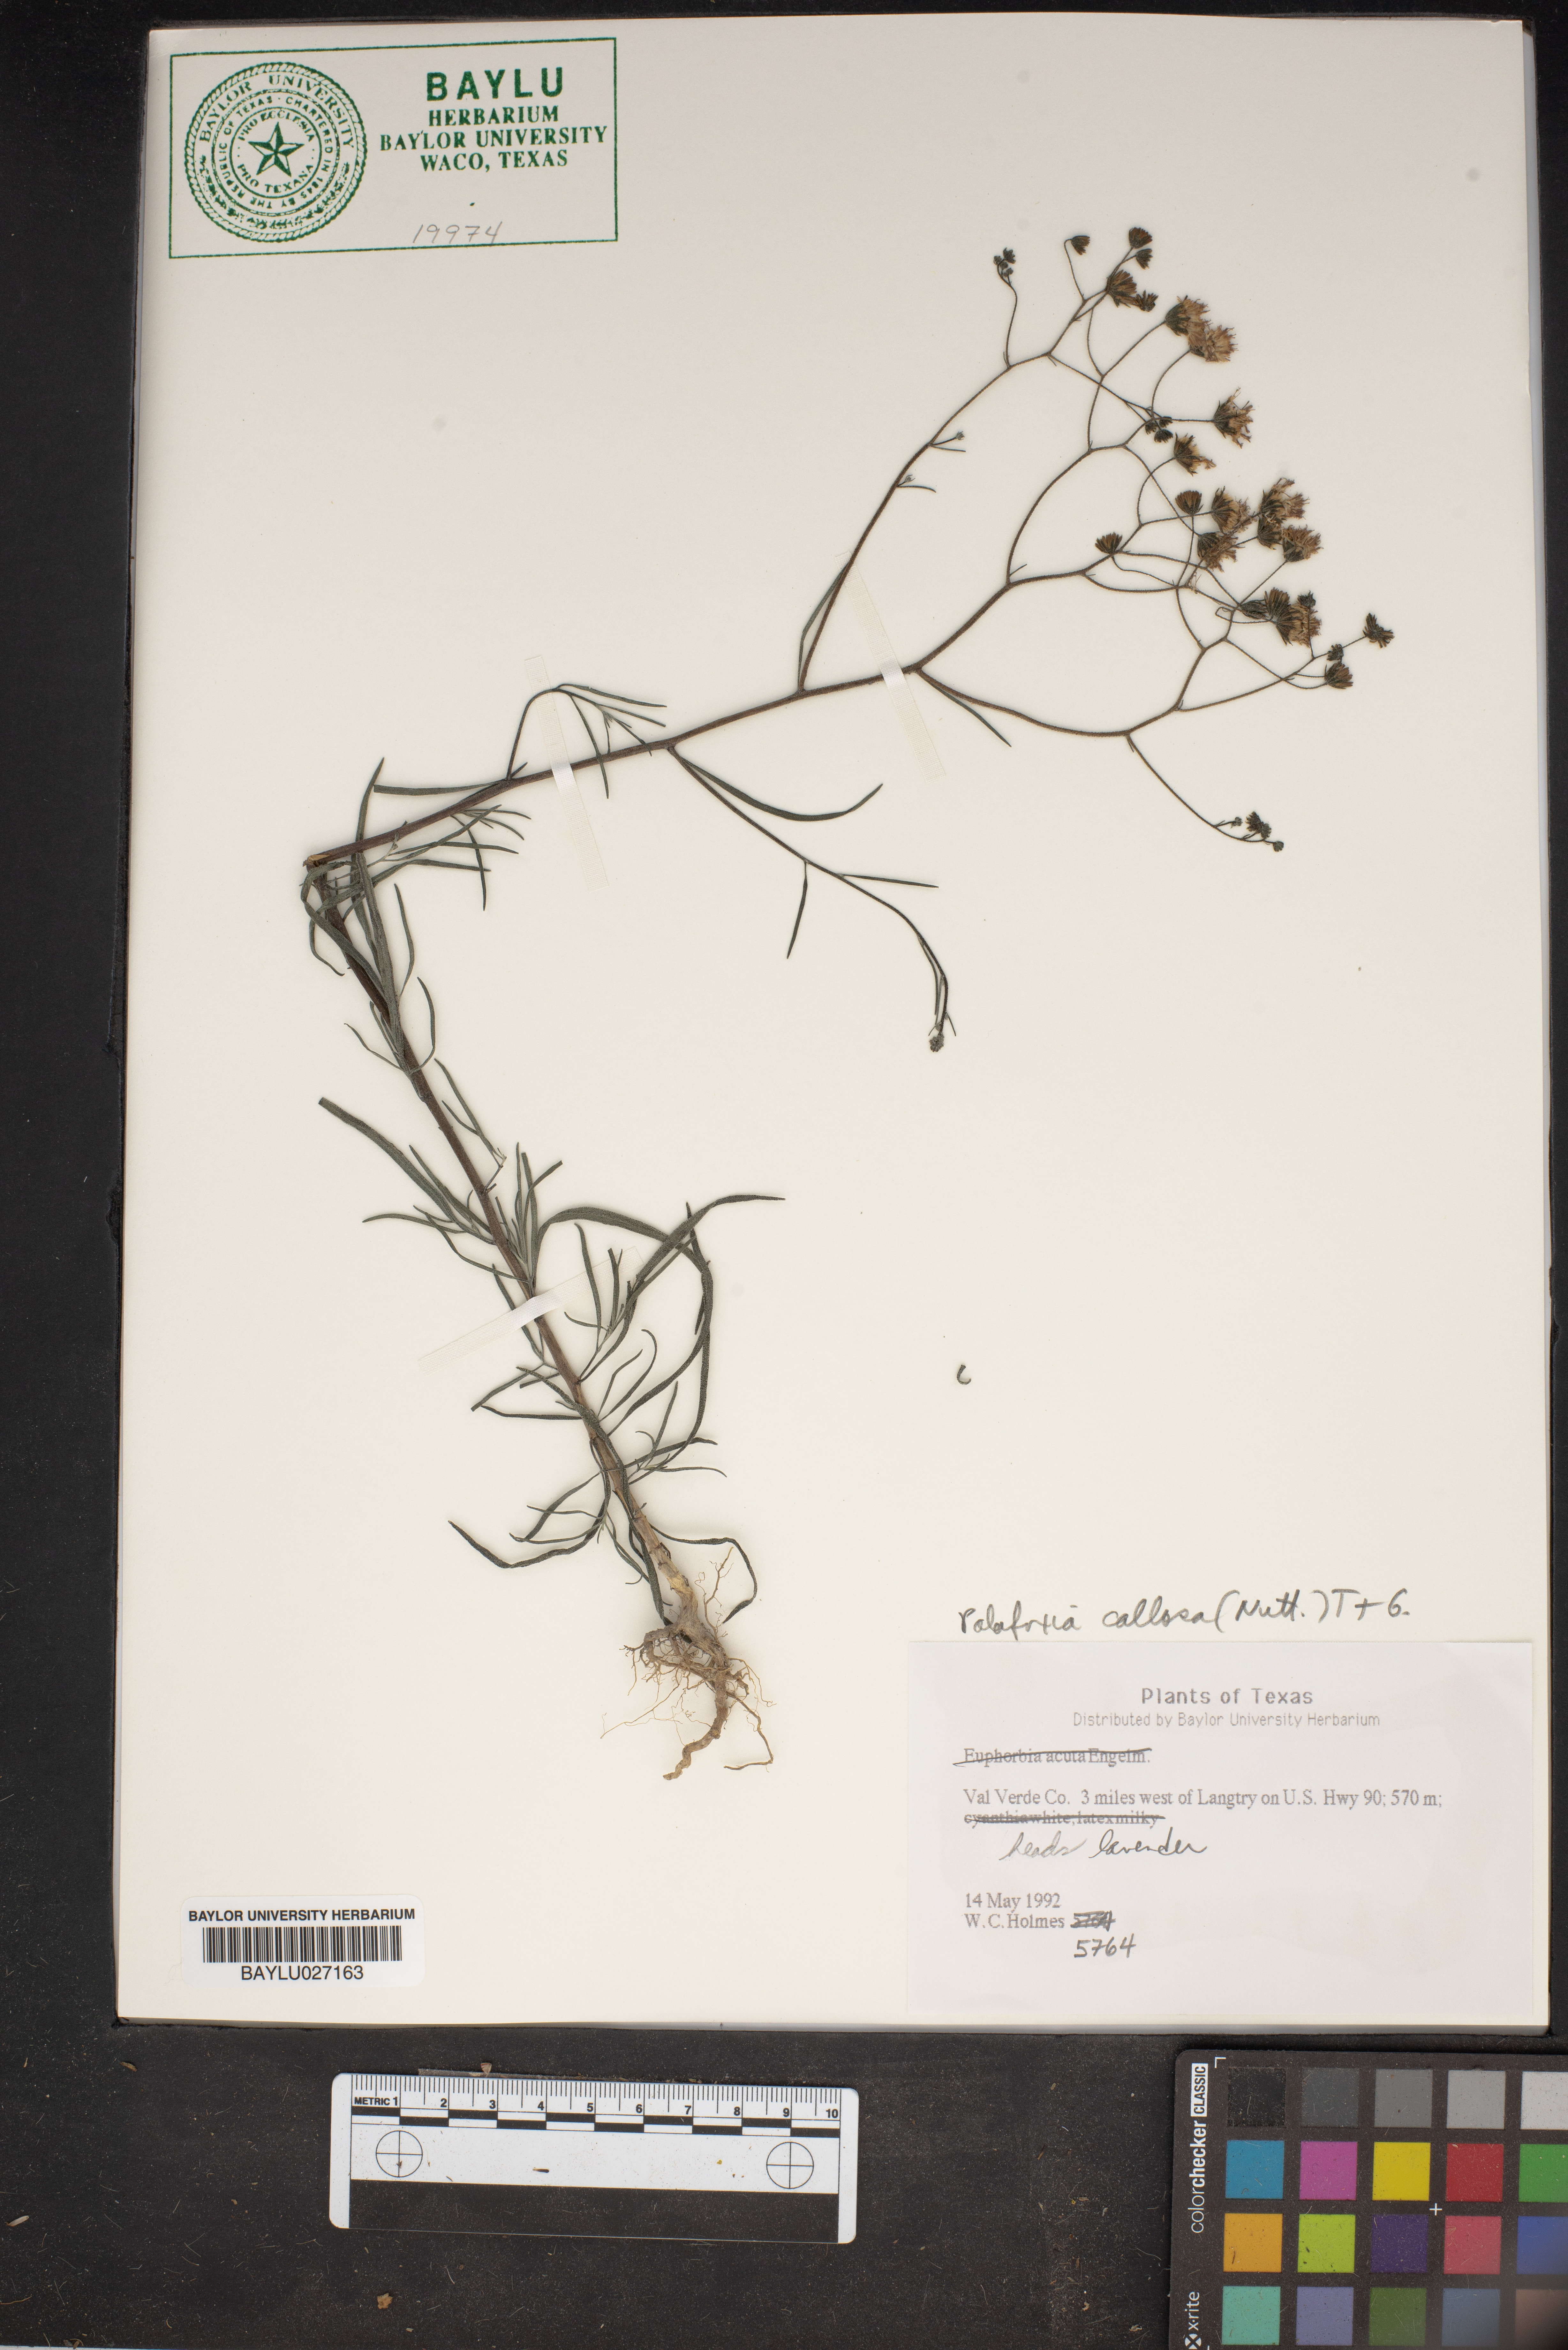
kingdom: Plantae
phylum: Tracheophyta
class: Magnoliopsida
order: Asterales
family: Asteraceae
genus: Palafoxia
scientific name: Palafoxia callosa
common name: Small palafox
